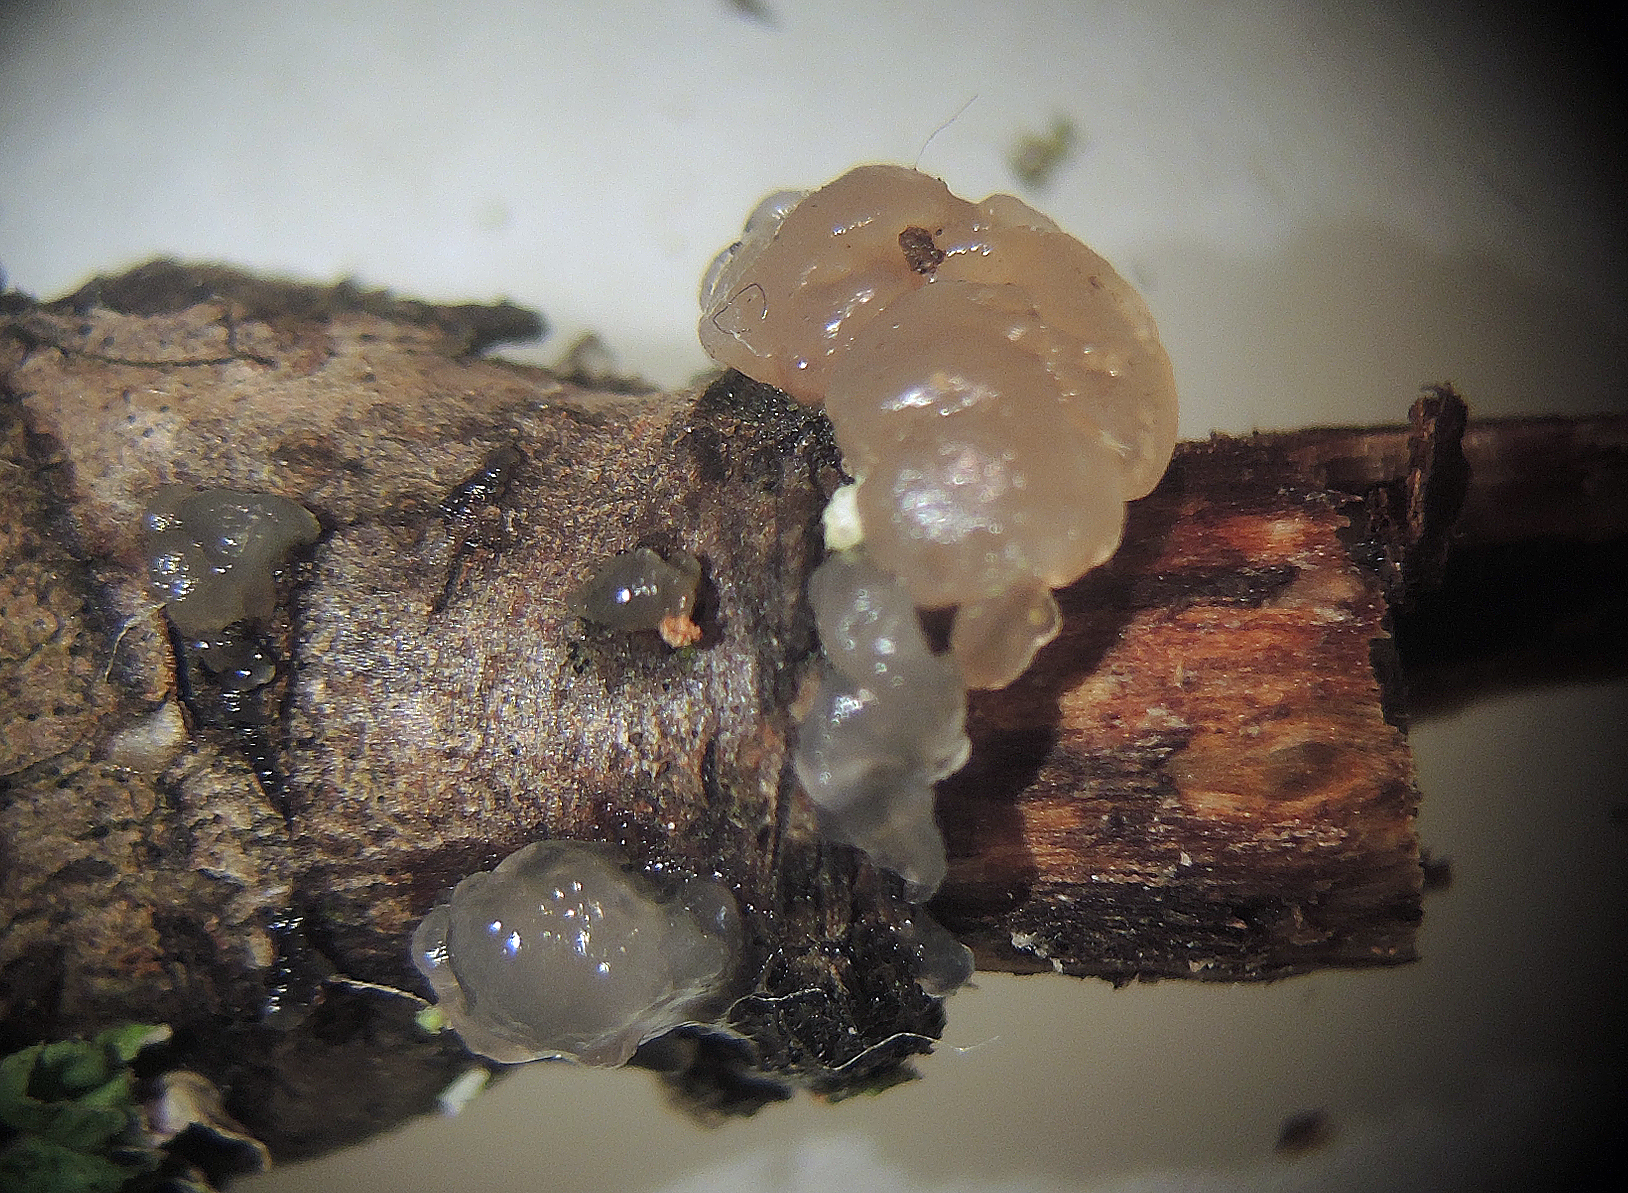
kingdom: Fungi
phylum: Basidiomycota
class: Agaricomycetes
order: Auriculariales
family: Hyaloriaceae
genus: Myxarium
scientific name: Myxarium
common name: bævretop
